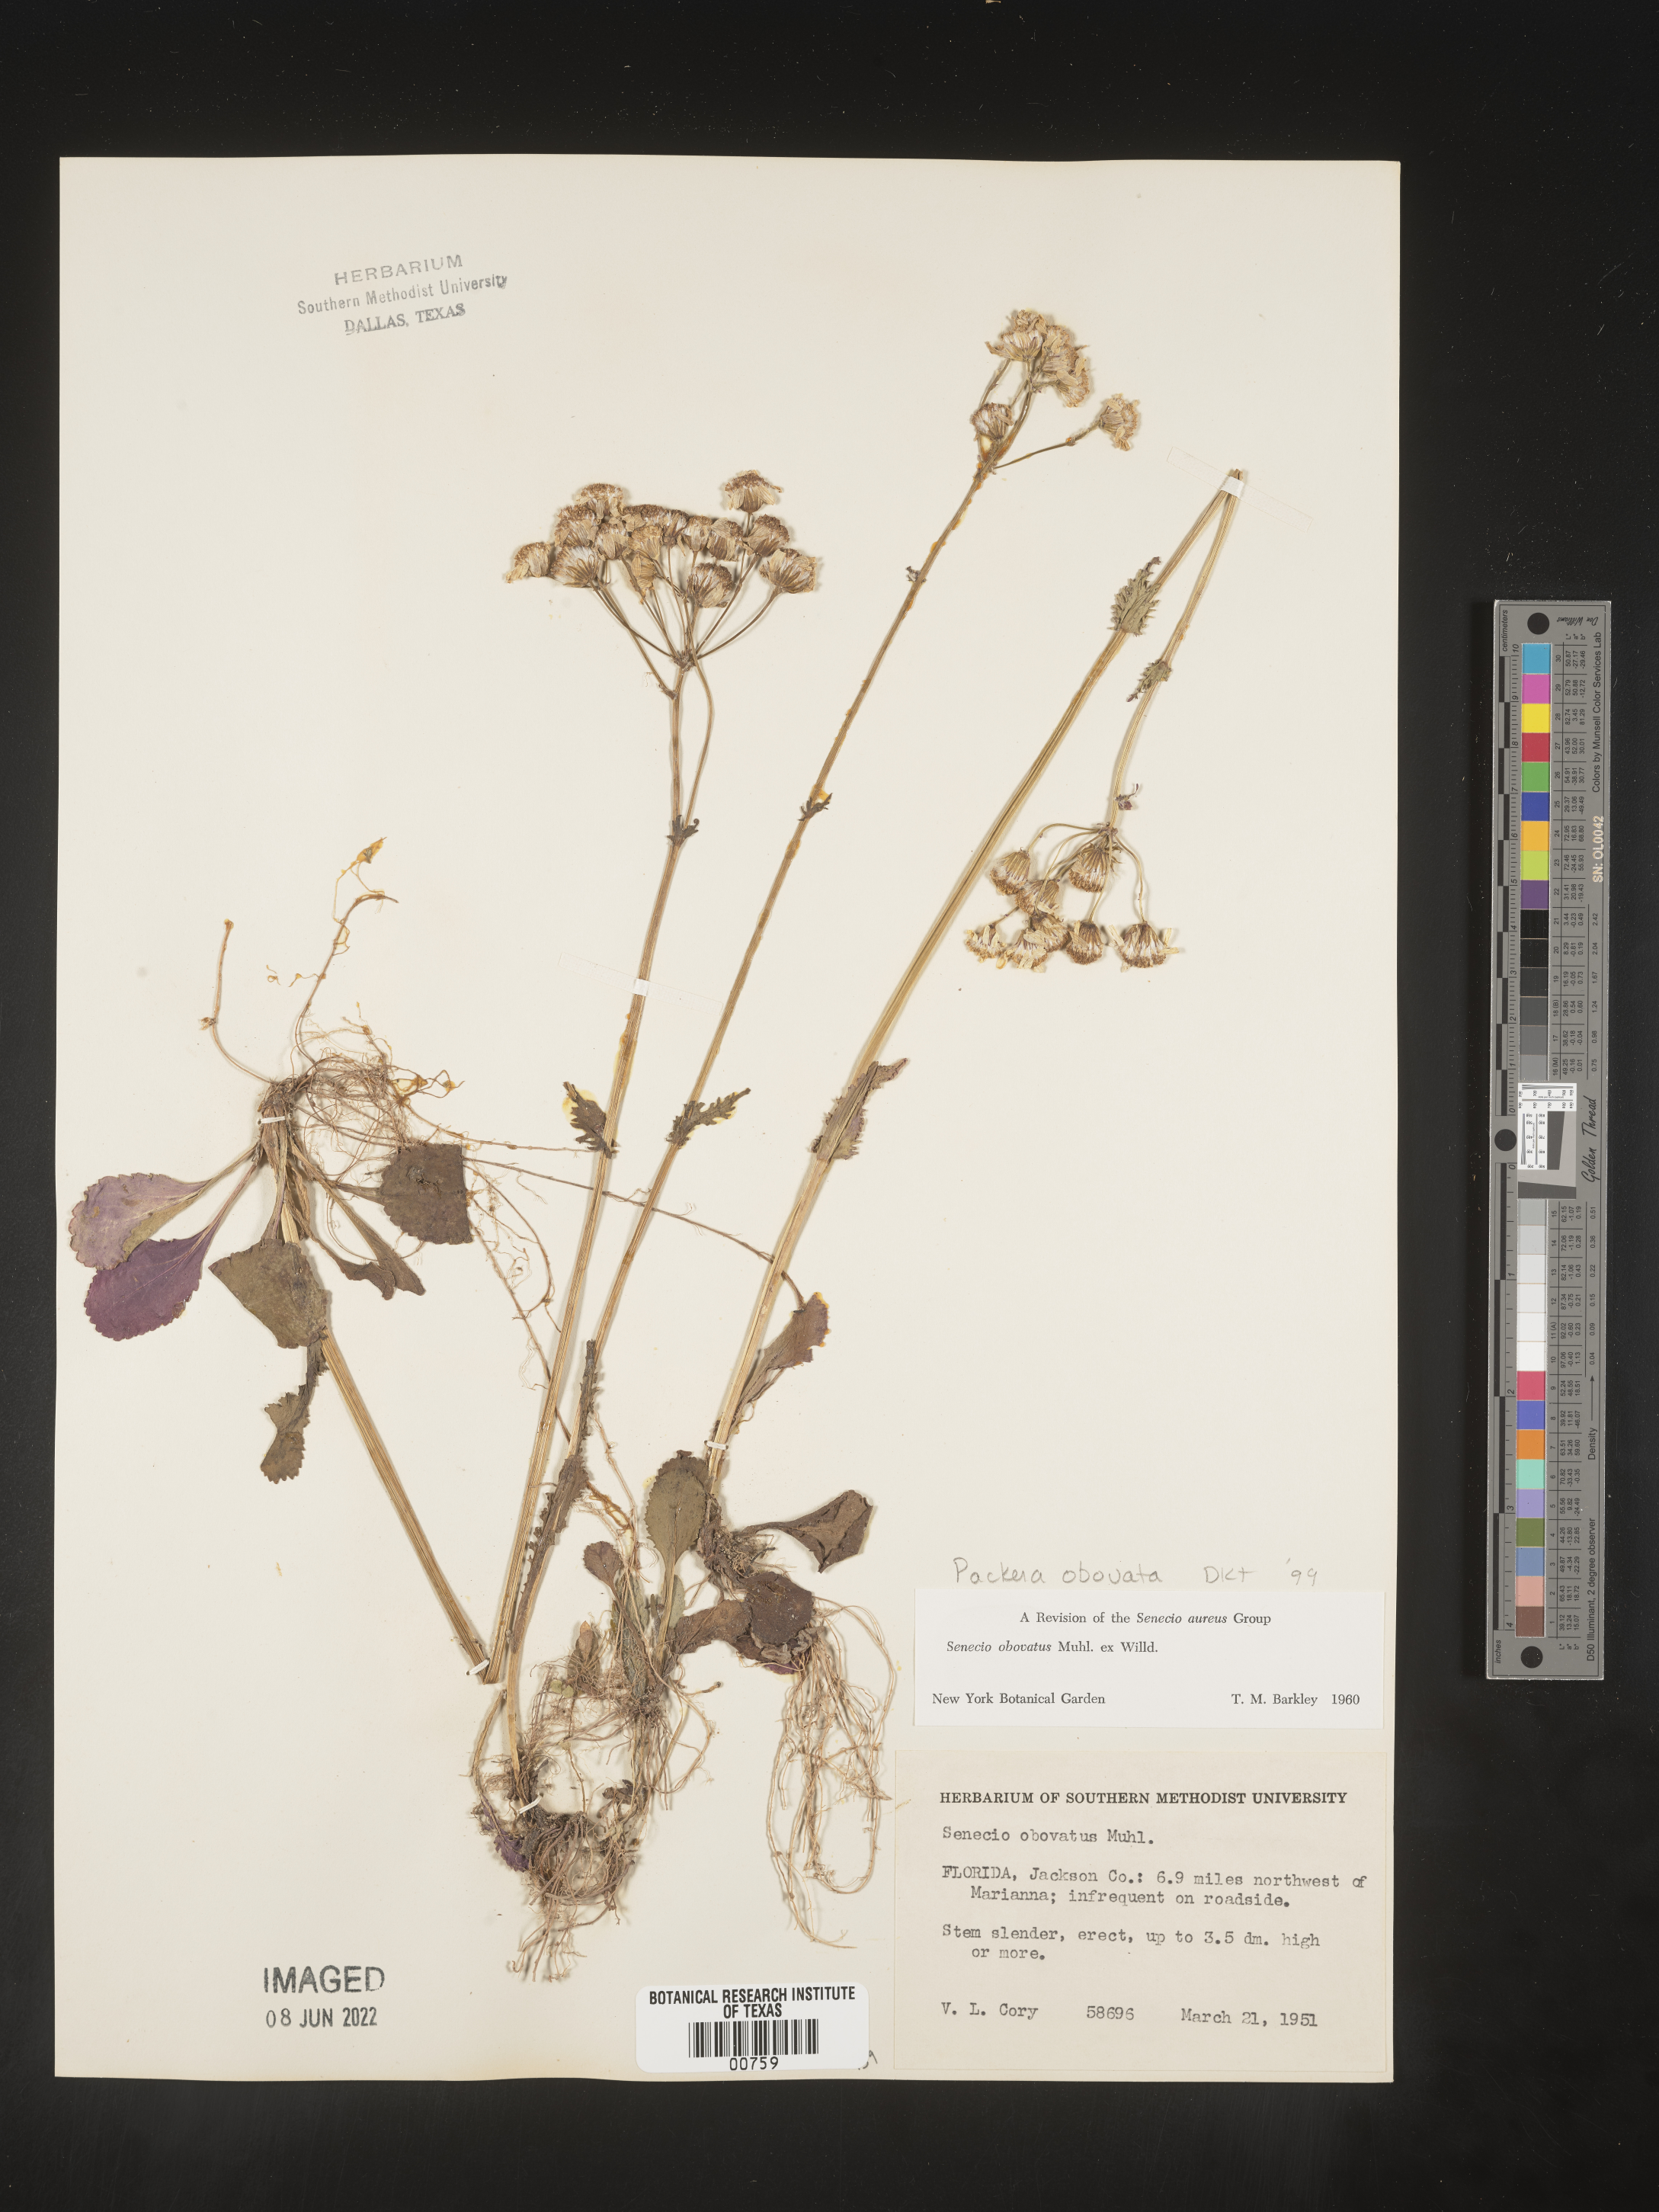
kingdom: Plantae
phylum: Tracheophyta
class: Magnoliopsida
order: Asterales
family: Asteraceae
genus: Packera
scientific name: Packera obovata
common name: Round-leaf ragwort
